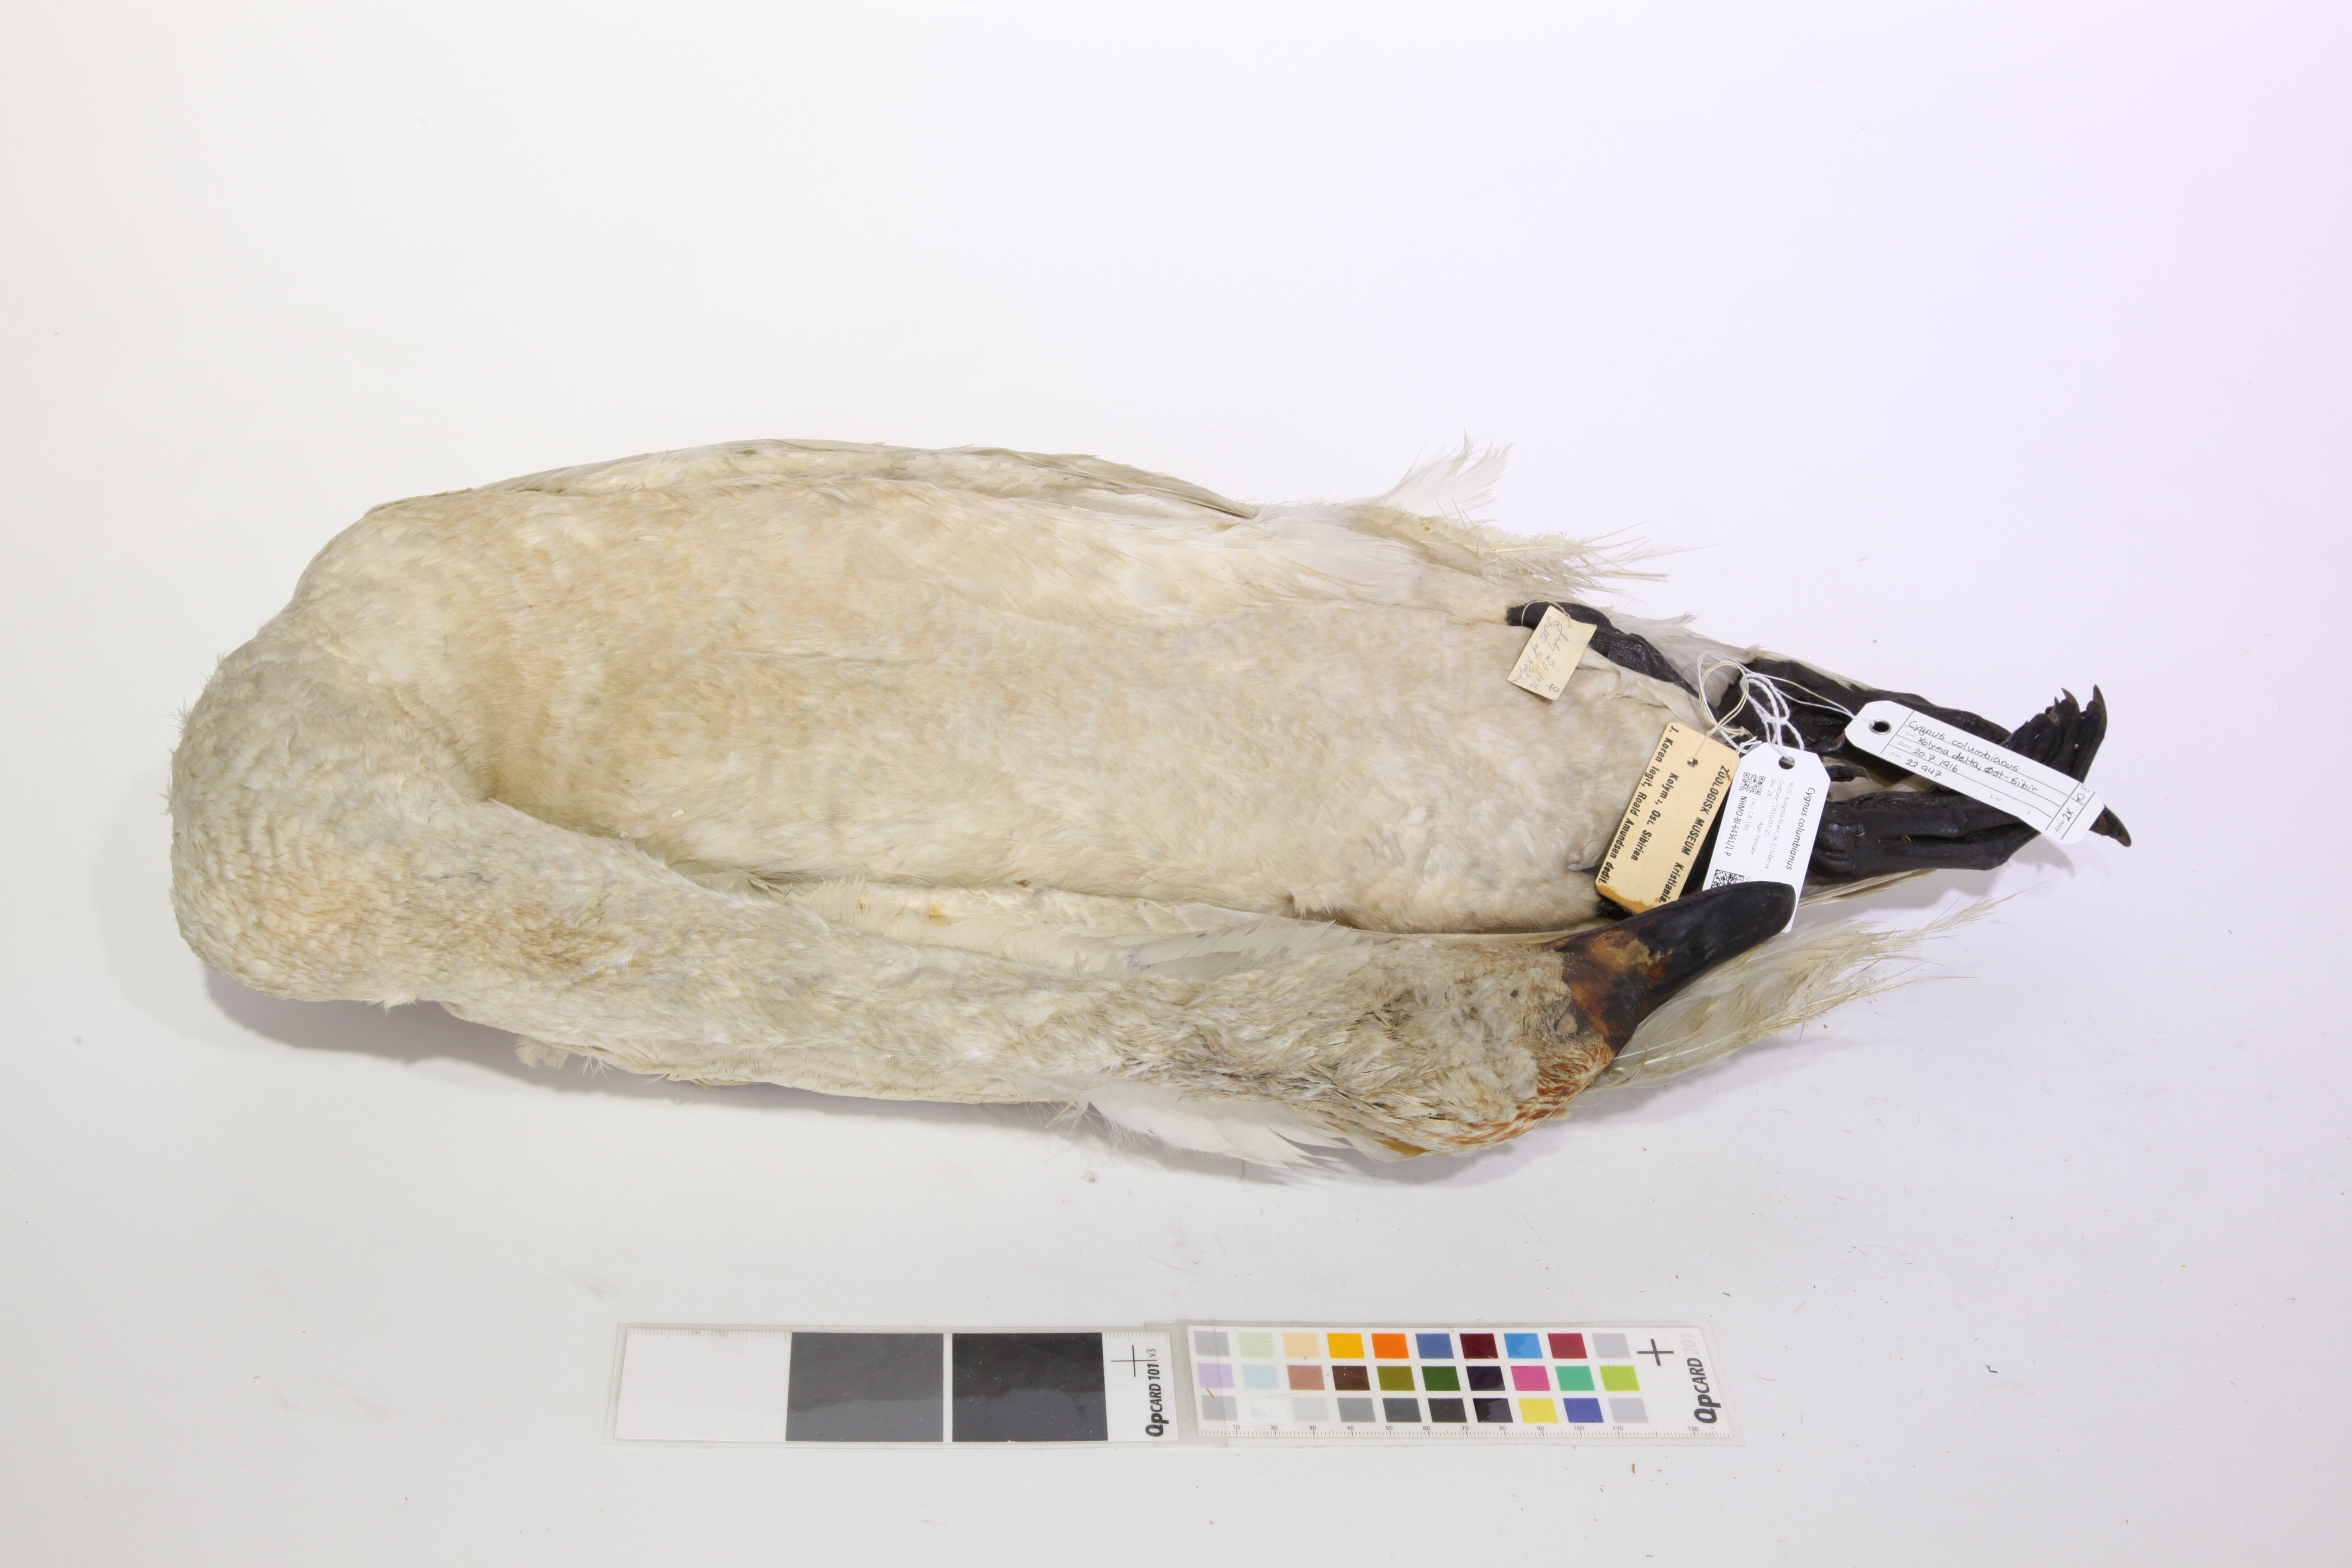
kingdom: Animalia
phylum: Chordata
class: Aves
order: Anseriformes
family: Anatidae
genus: Cygnus
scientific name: Cygnus columbianus
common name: Tundra swan
